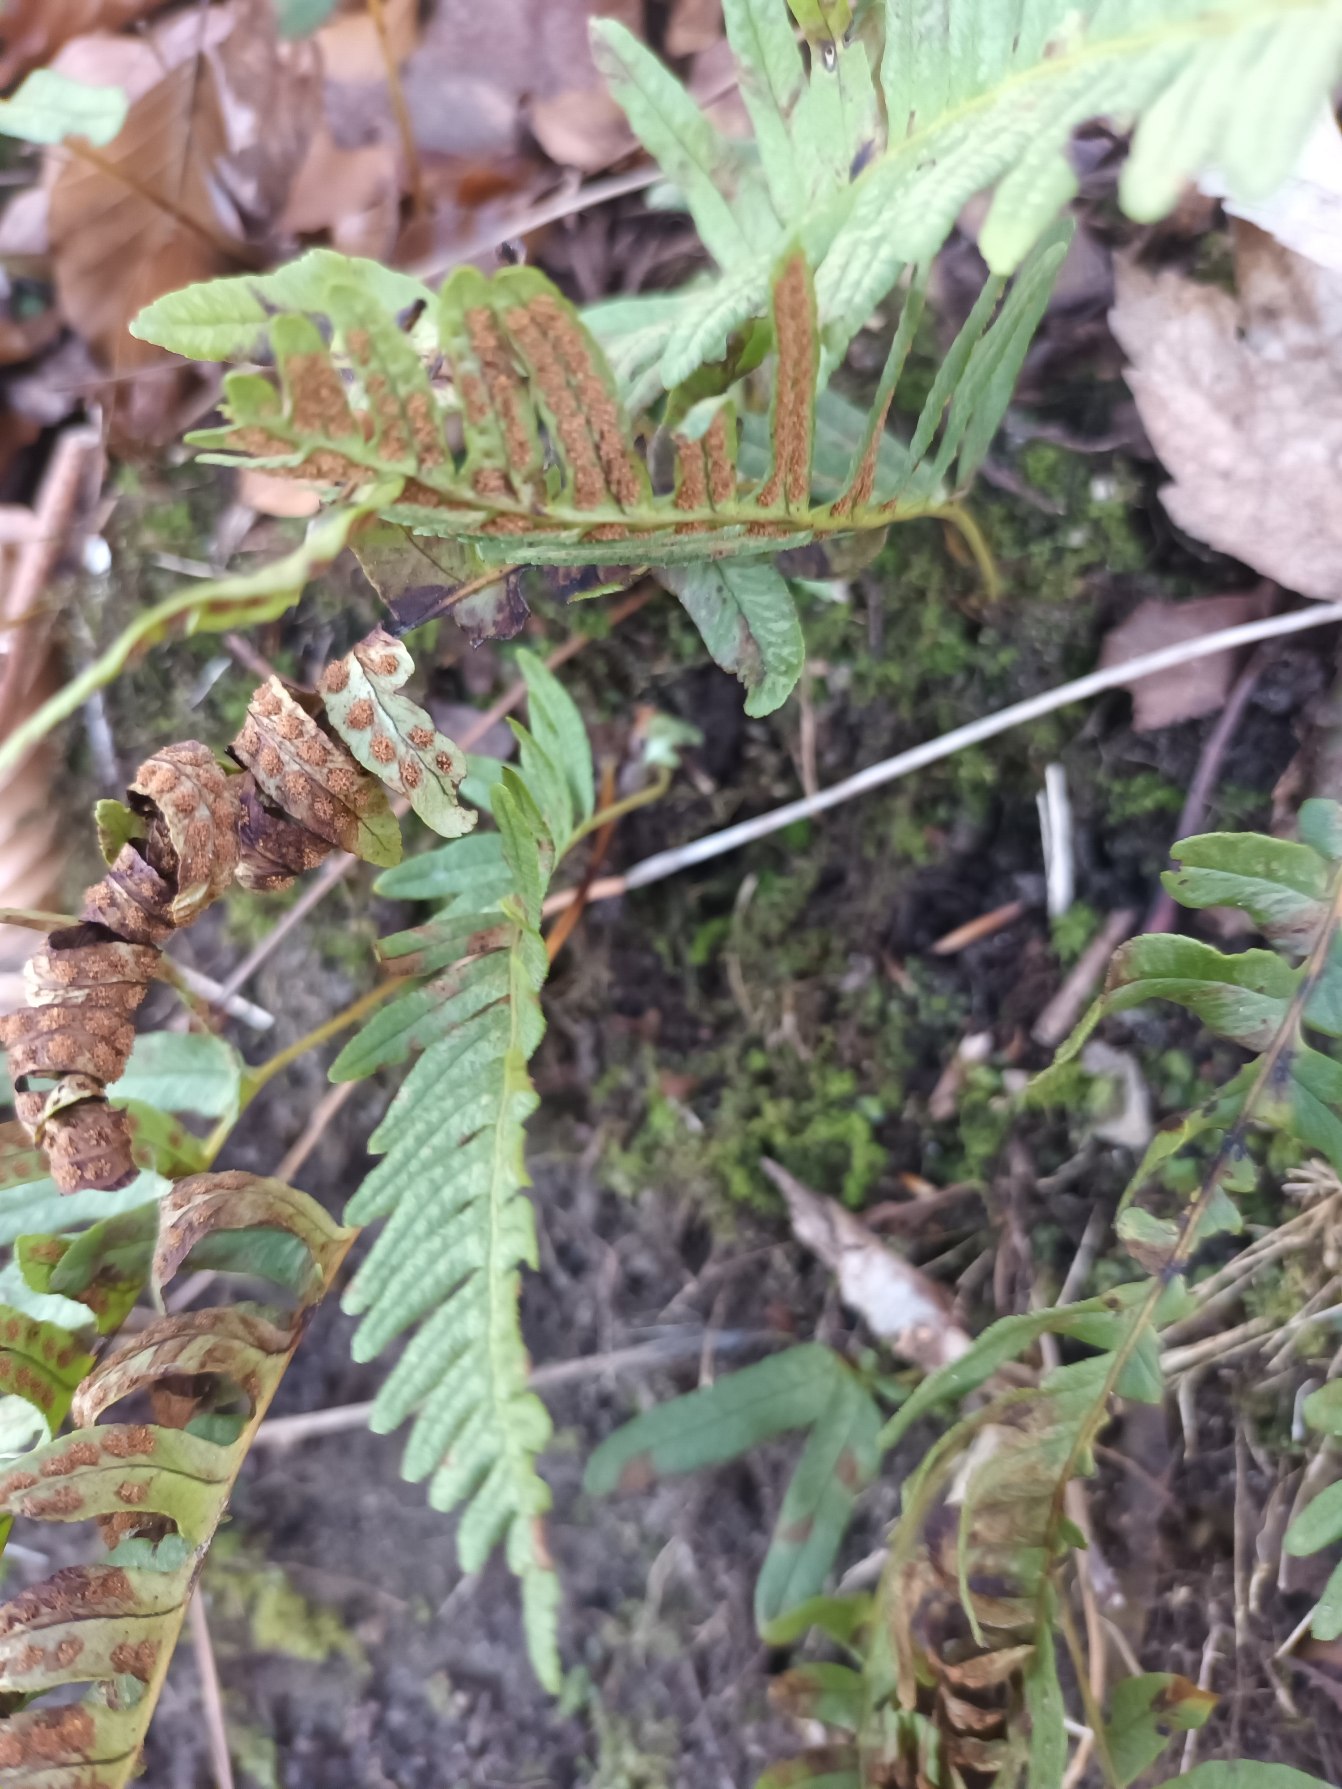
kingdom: Plantae
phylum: Tracheophyta
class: Polypodiopsida
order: Polypodiales
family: Polypodiaceae
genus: Polypodium
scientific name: Polypodium vulgare
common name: Almindelig engelsød
